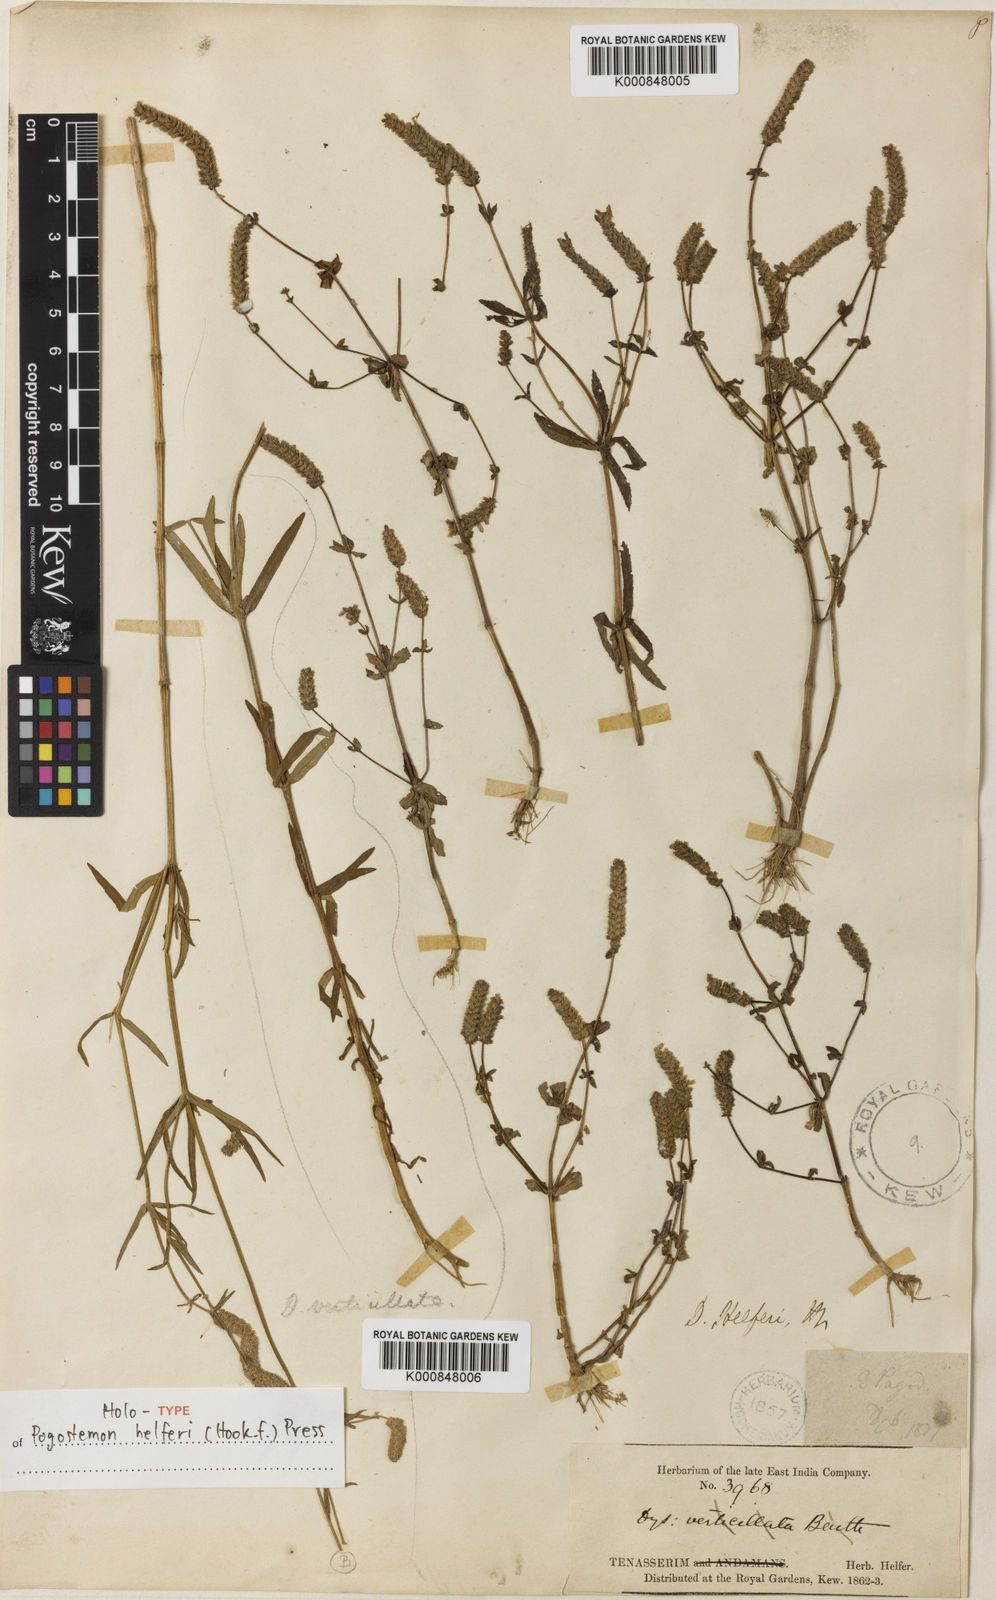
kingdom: Plantae
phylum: Tracheophyta
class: Magnoliopsida
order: Lamiales
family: Lamiaceae
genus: Pogostemon
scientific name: Pogostemon helferi
